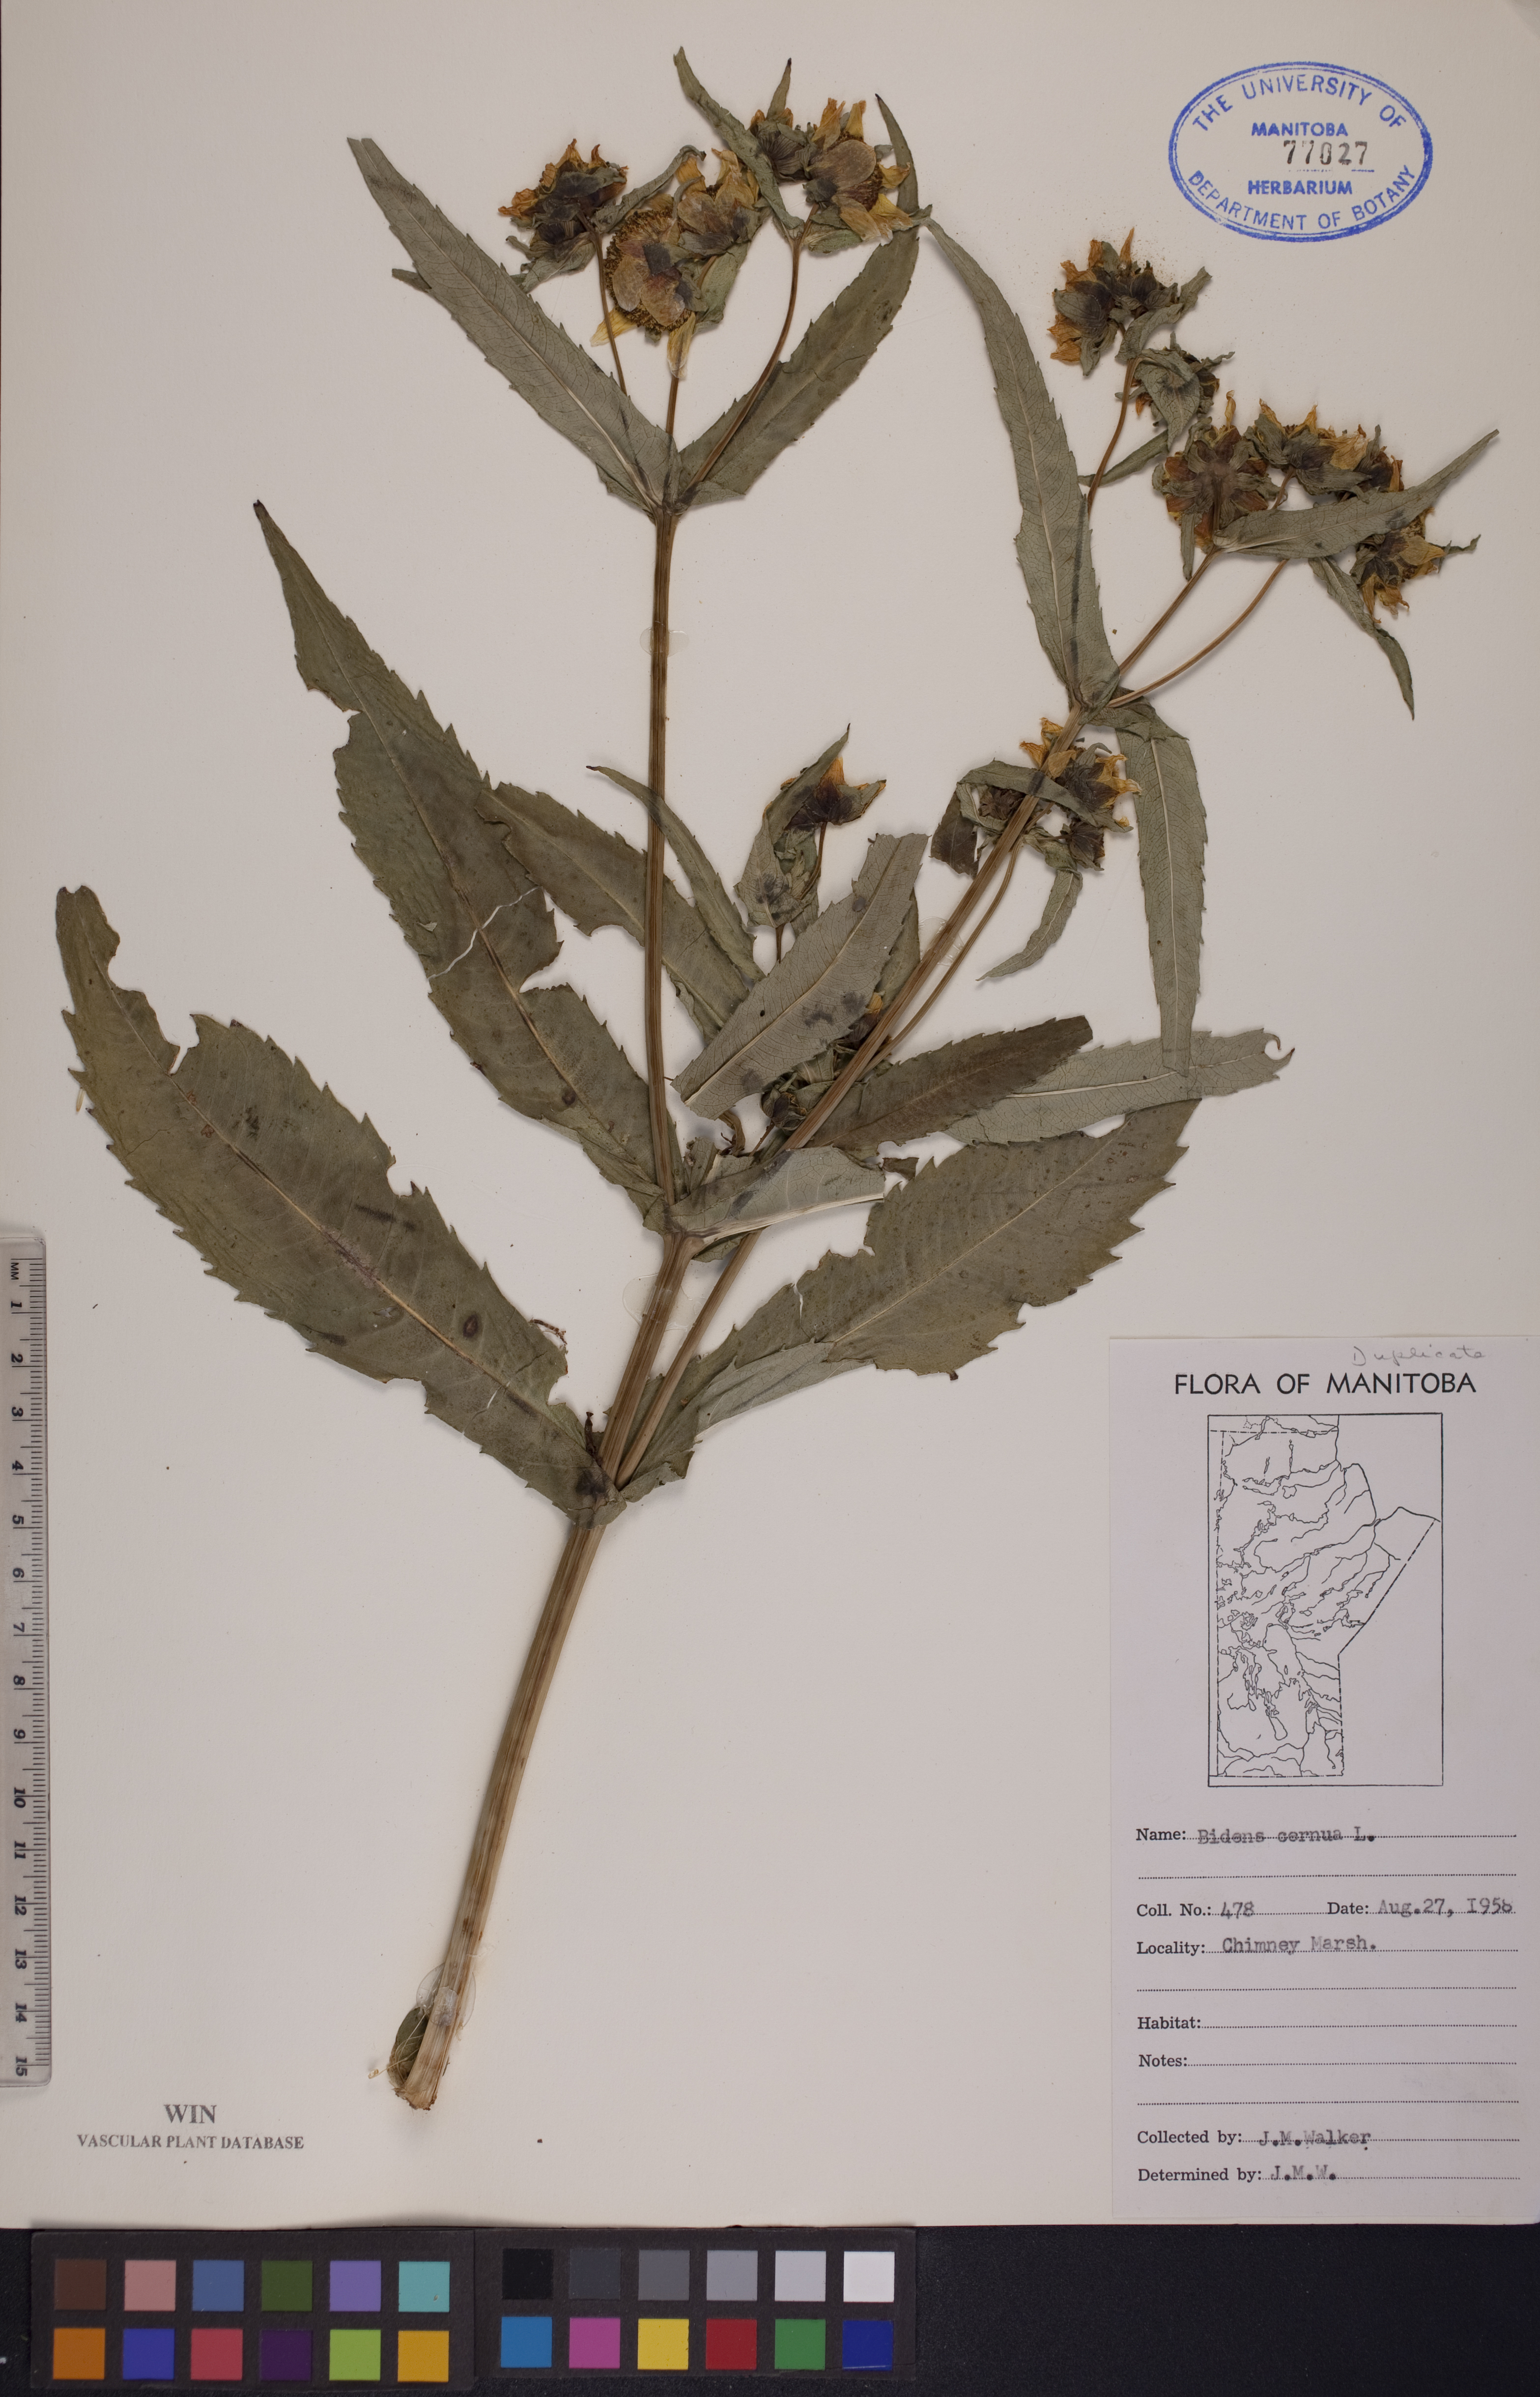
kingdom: Plantae
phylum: Tracheophyta
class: Magnoliopsida
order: Asterales
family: Asteraceae
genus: Bidens
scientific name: Bidens cernua
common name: Nodding bur-marigold
